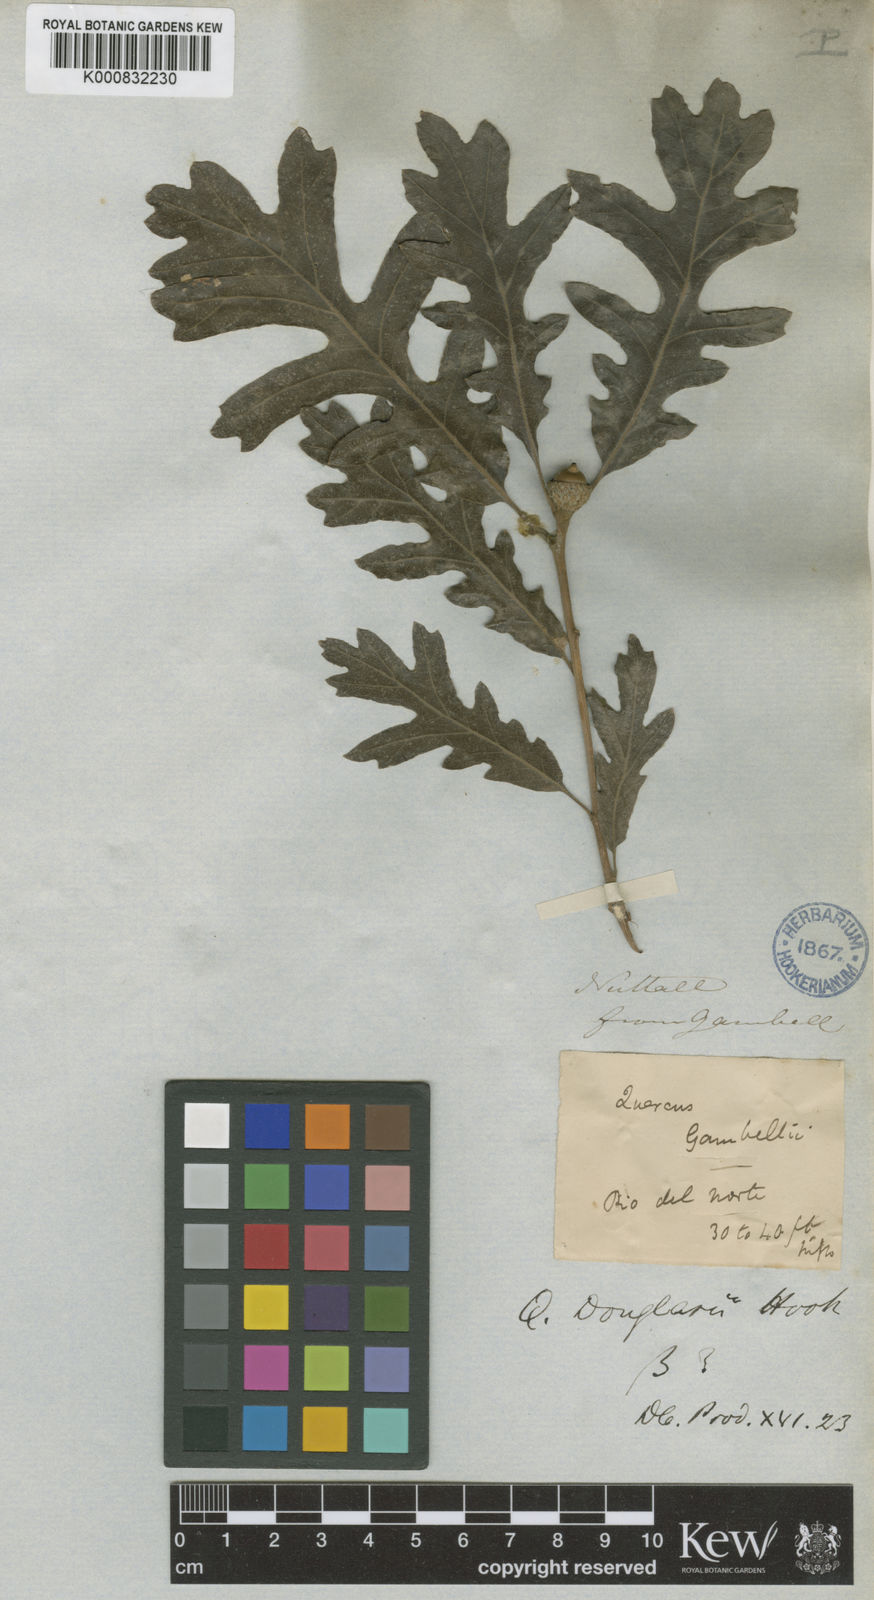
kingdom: Plantae
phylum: Tracheophyta
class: Magnoliopsida
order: Fagales
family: Fagaceae
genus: Quercus
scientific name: Quercus douglasii
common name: Blue oak
